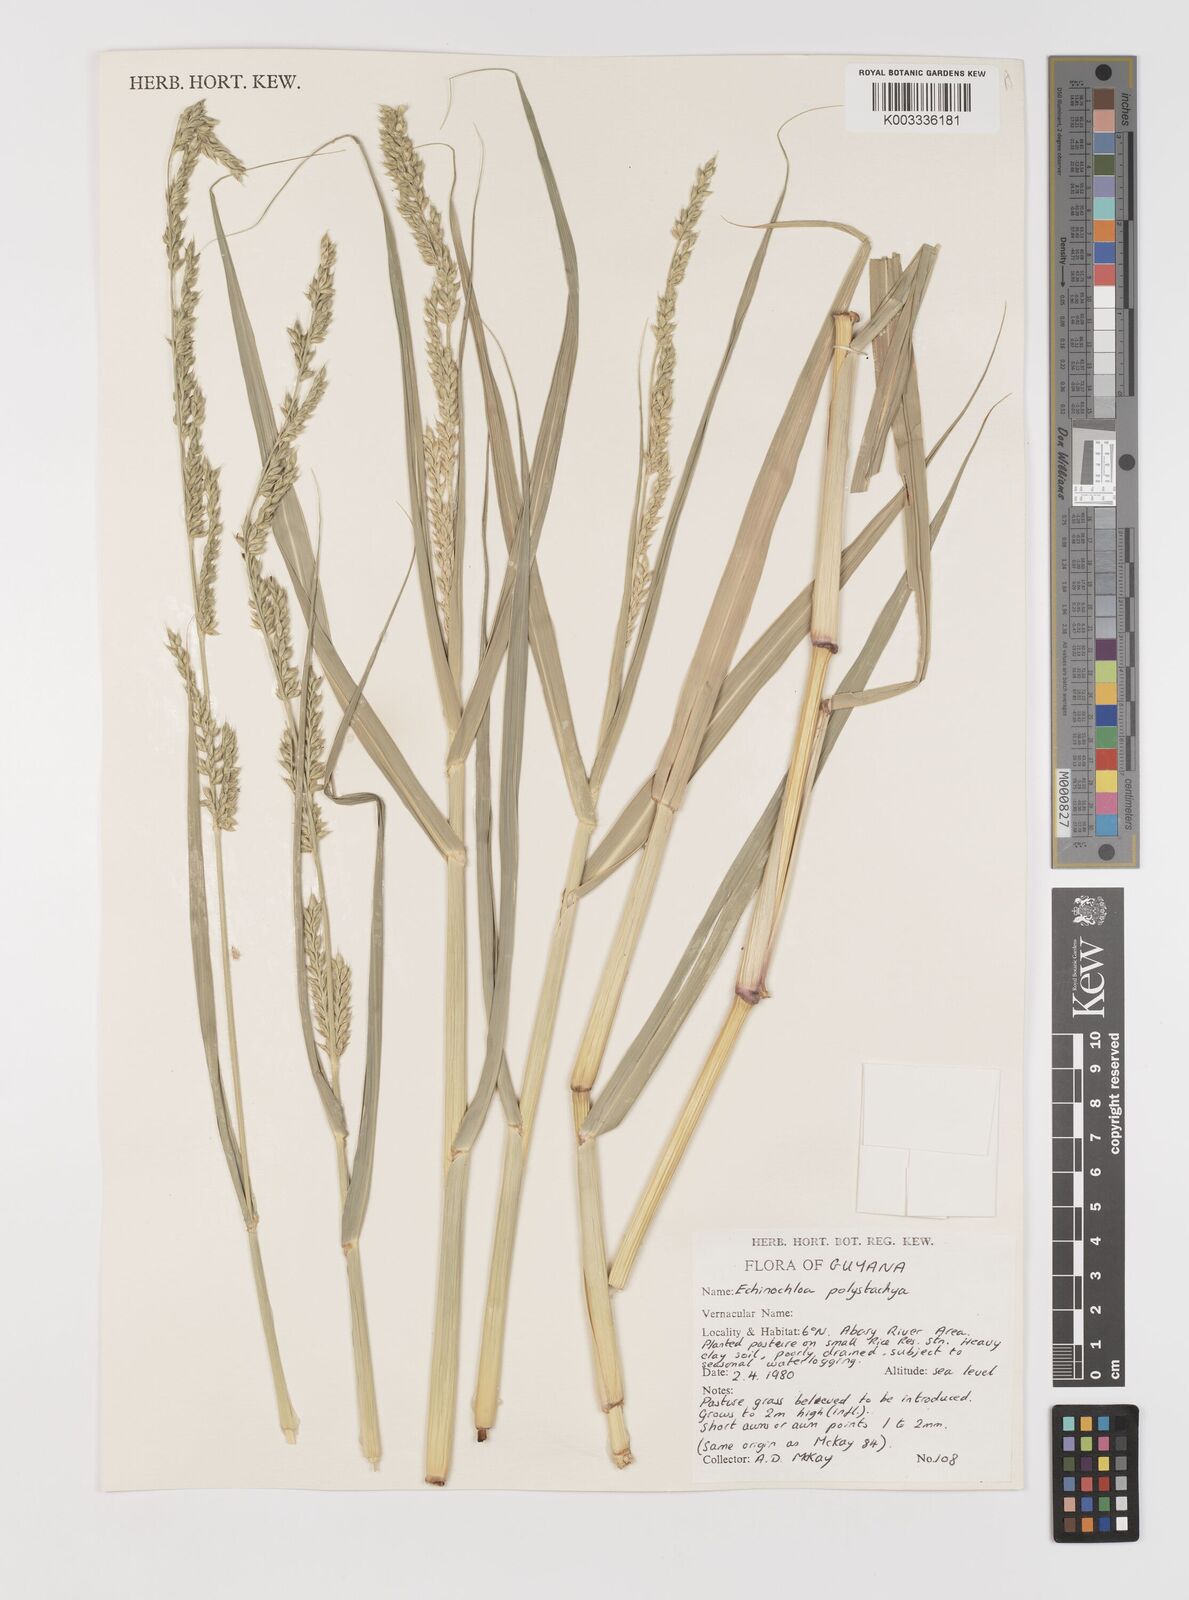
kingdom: Plantae
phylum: Tracheophyta
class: Liliopsida
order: Poales
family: Poaceae
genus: Pseudechinolaena
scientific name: Pseudechinolaena polystachya
